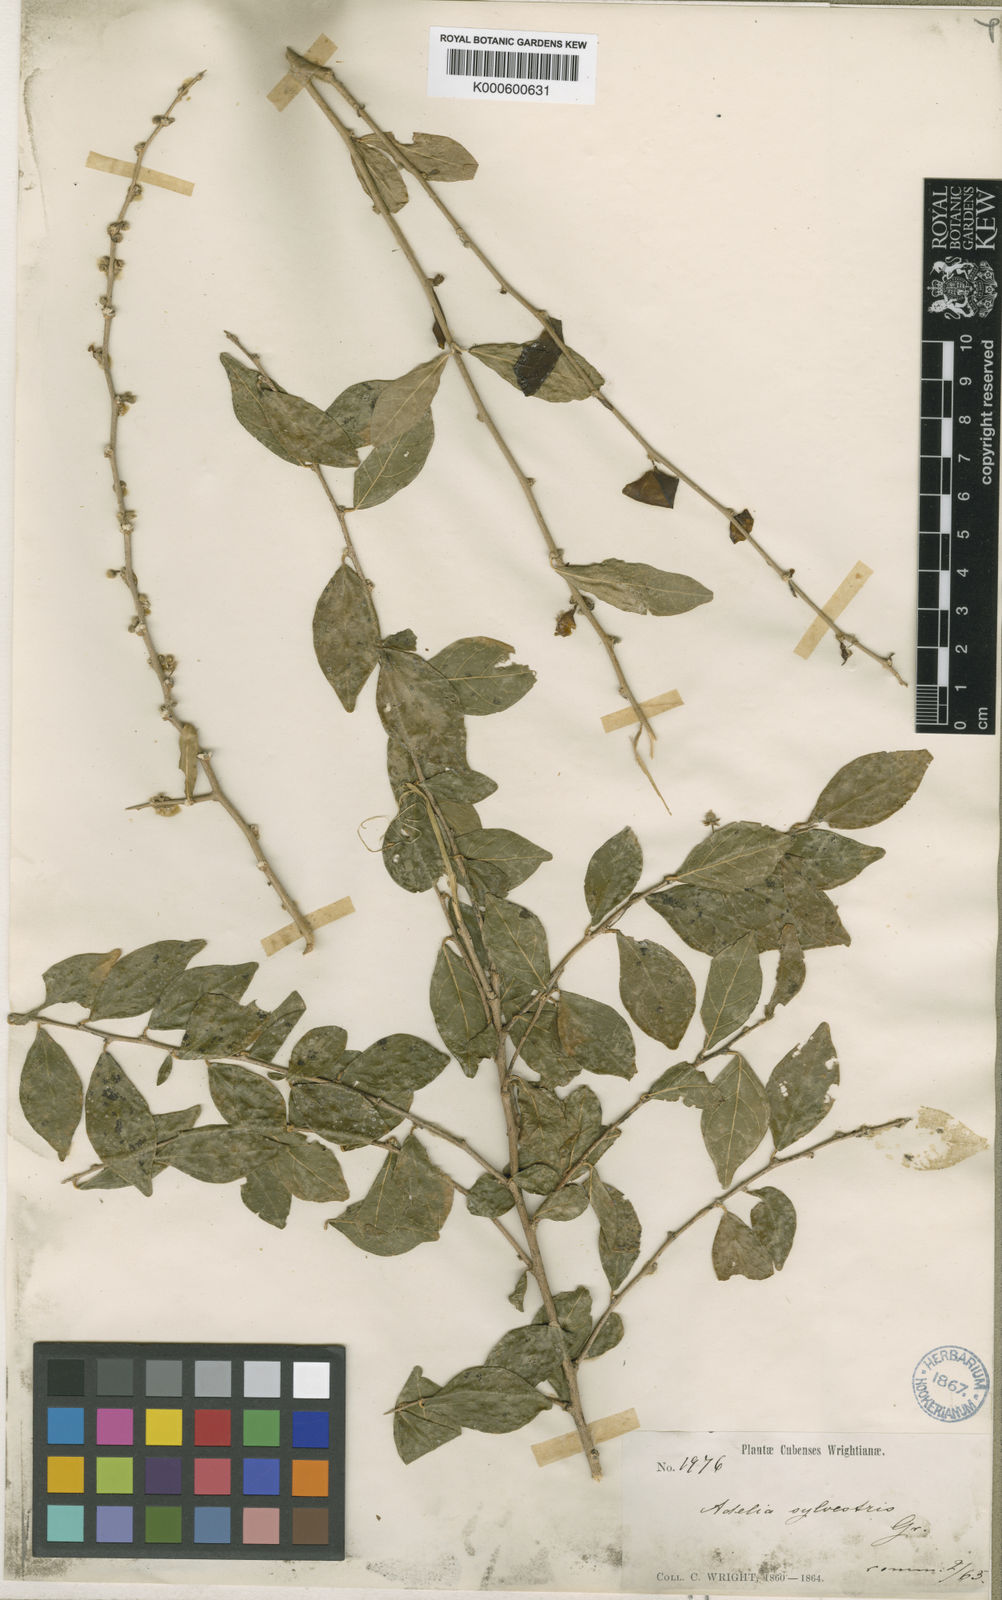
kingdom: Plantae
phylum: Tracheophyta
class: Magnoliopsida
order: Malpighiales
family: Euphorbiaceae
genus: Adelia
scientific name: Adelia ricinella
